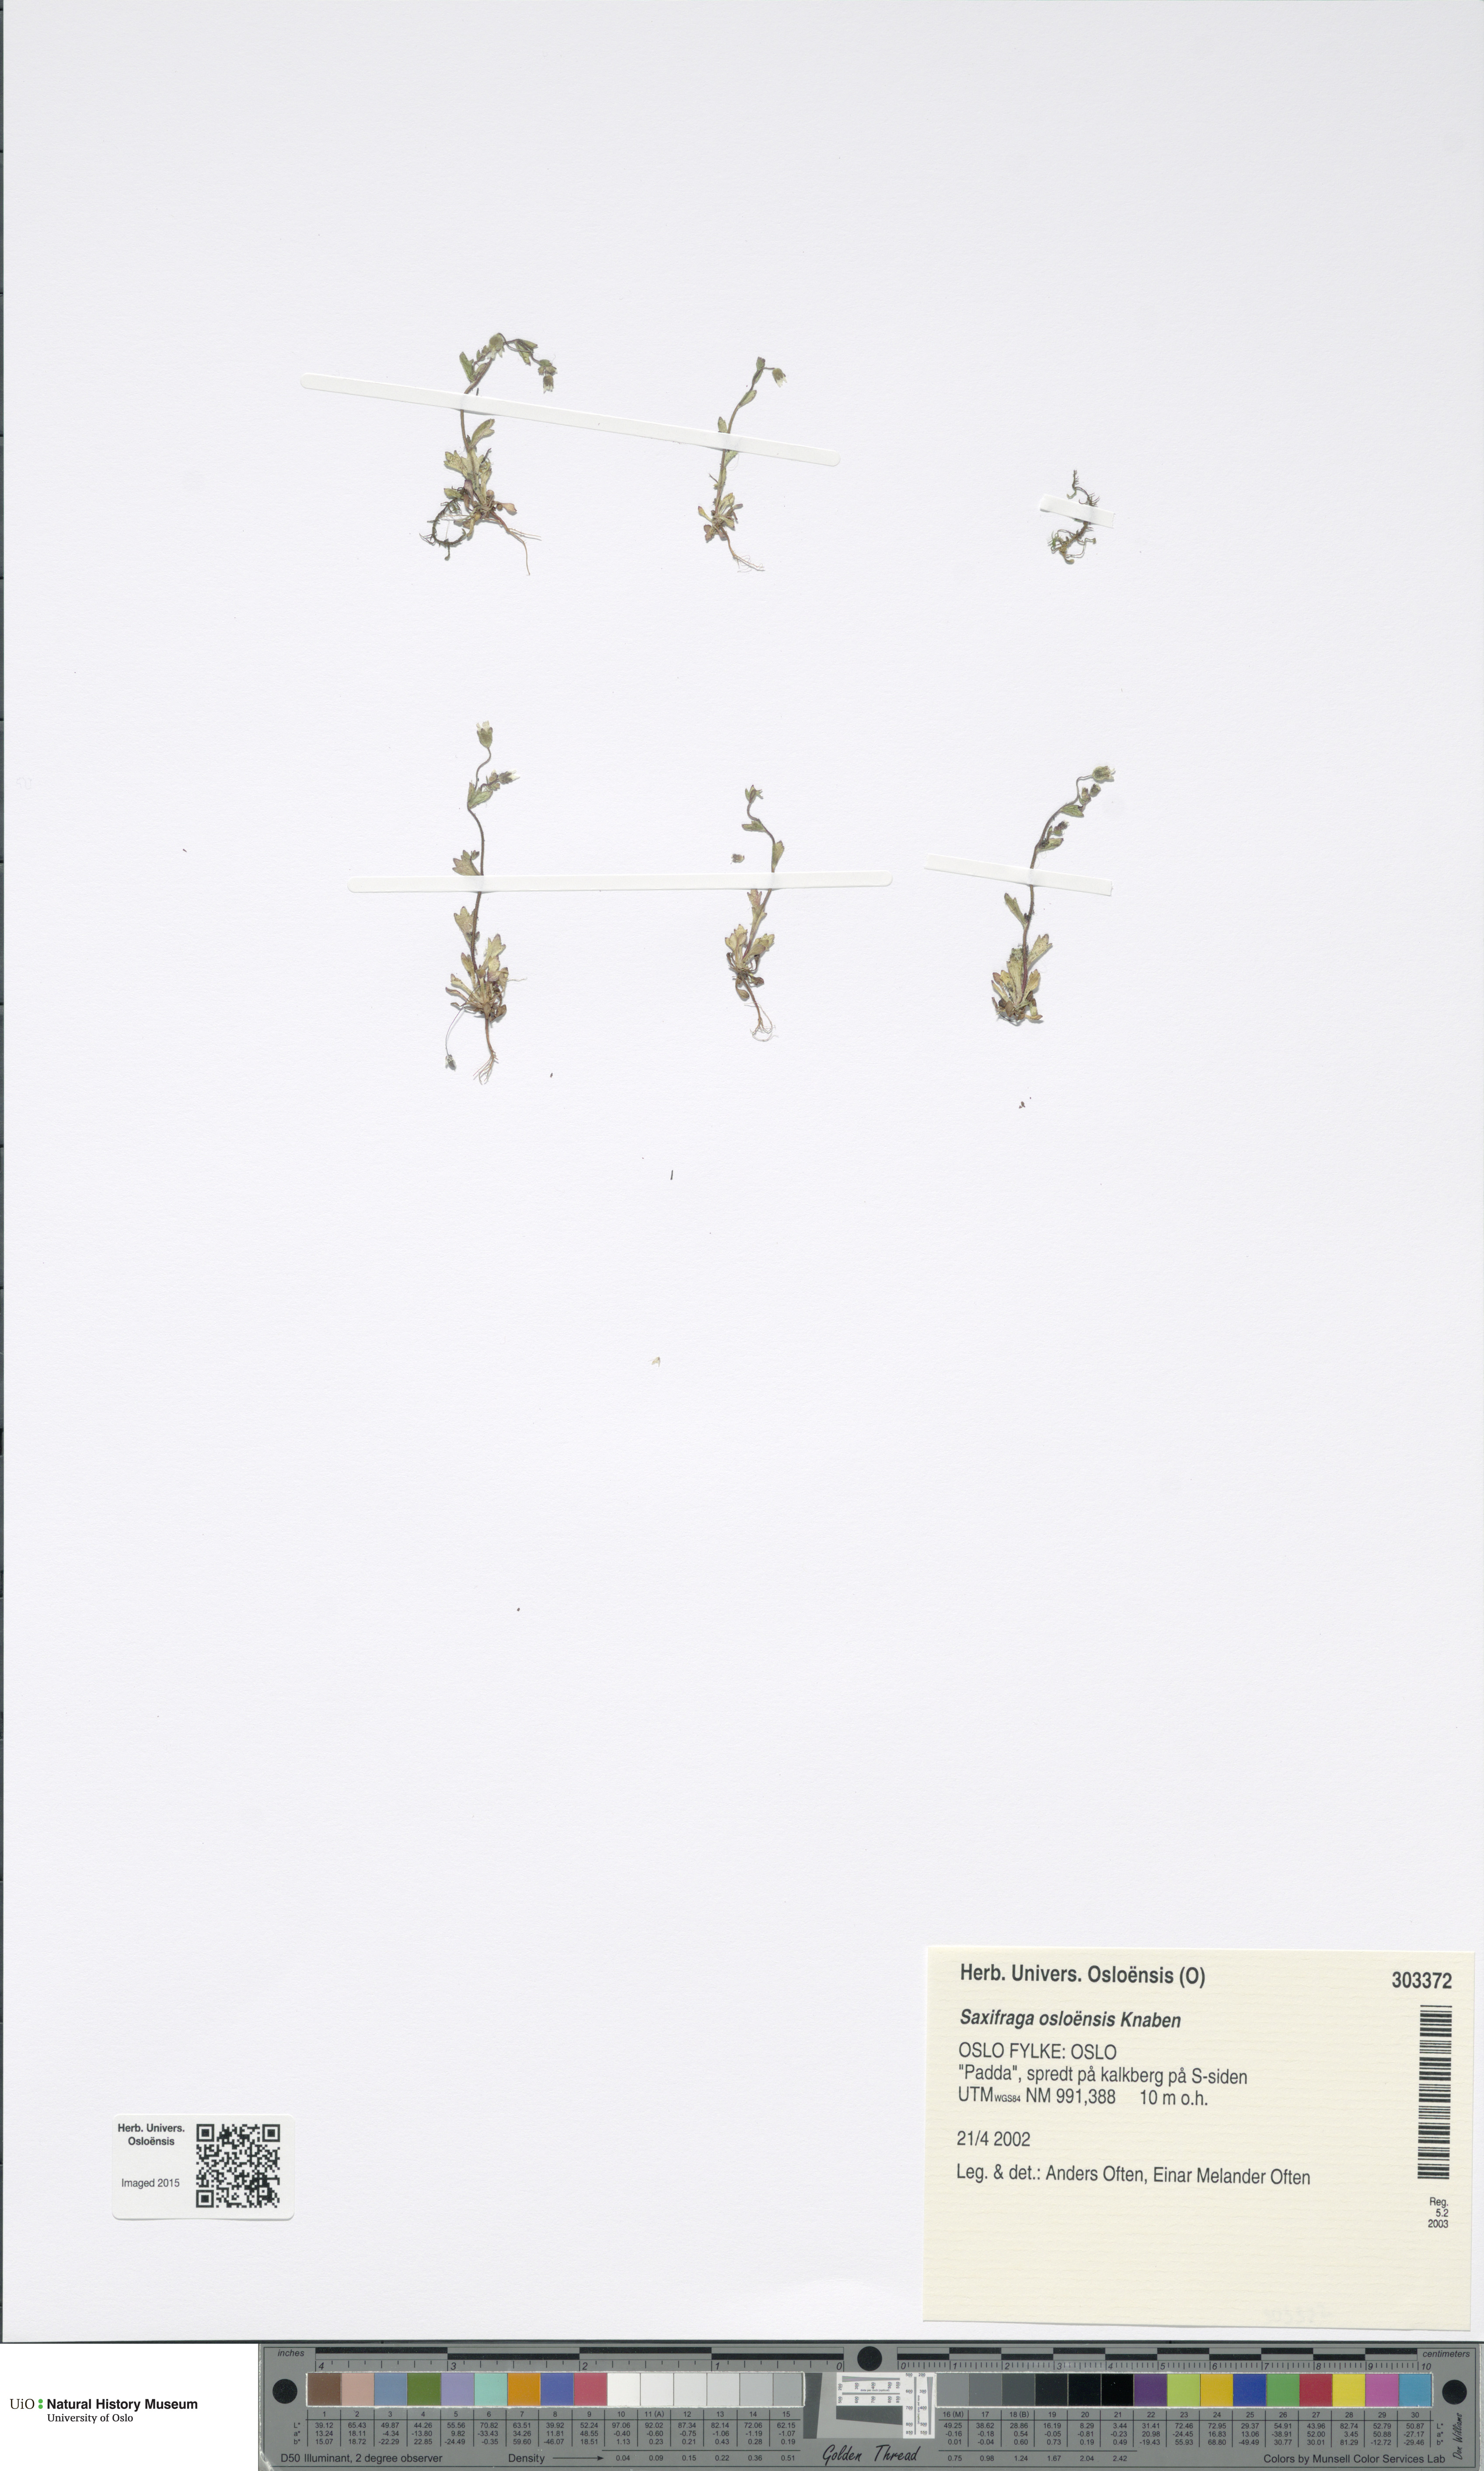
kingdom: Plantae
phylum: Tracheophyta
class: Magnoliopsida
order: Saxifragales
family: Saxifragaceae
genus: Saxifraga
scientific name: Saxifraga osloensis
